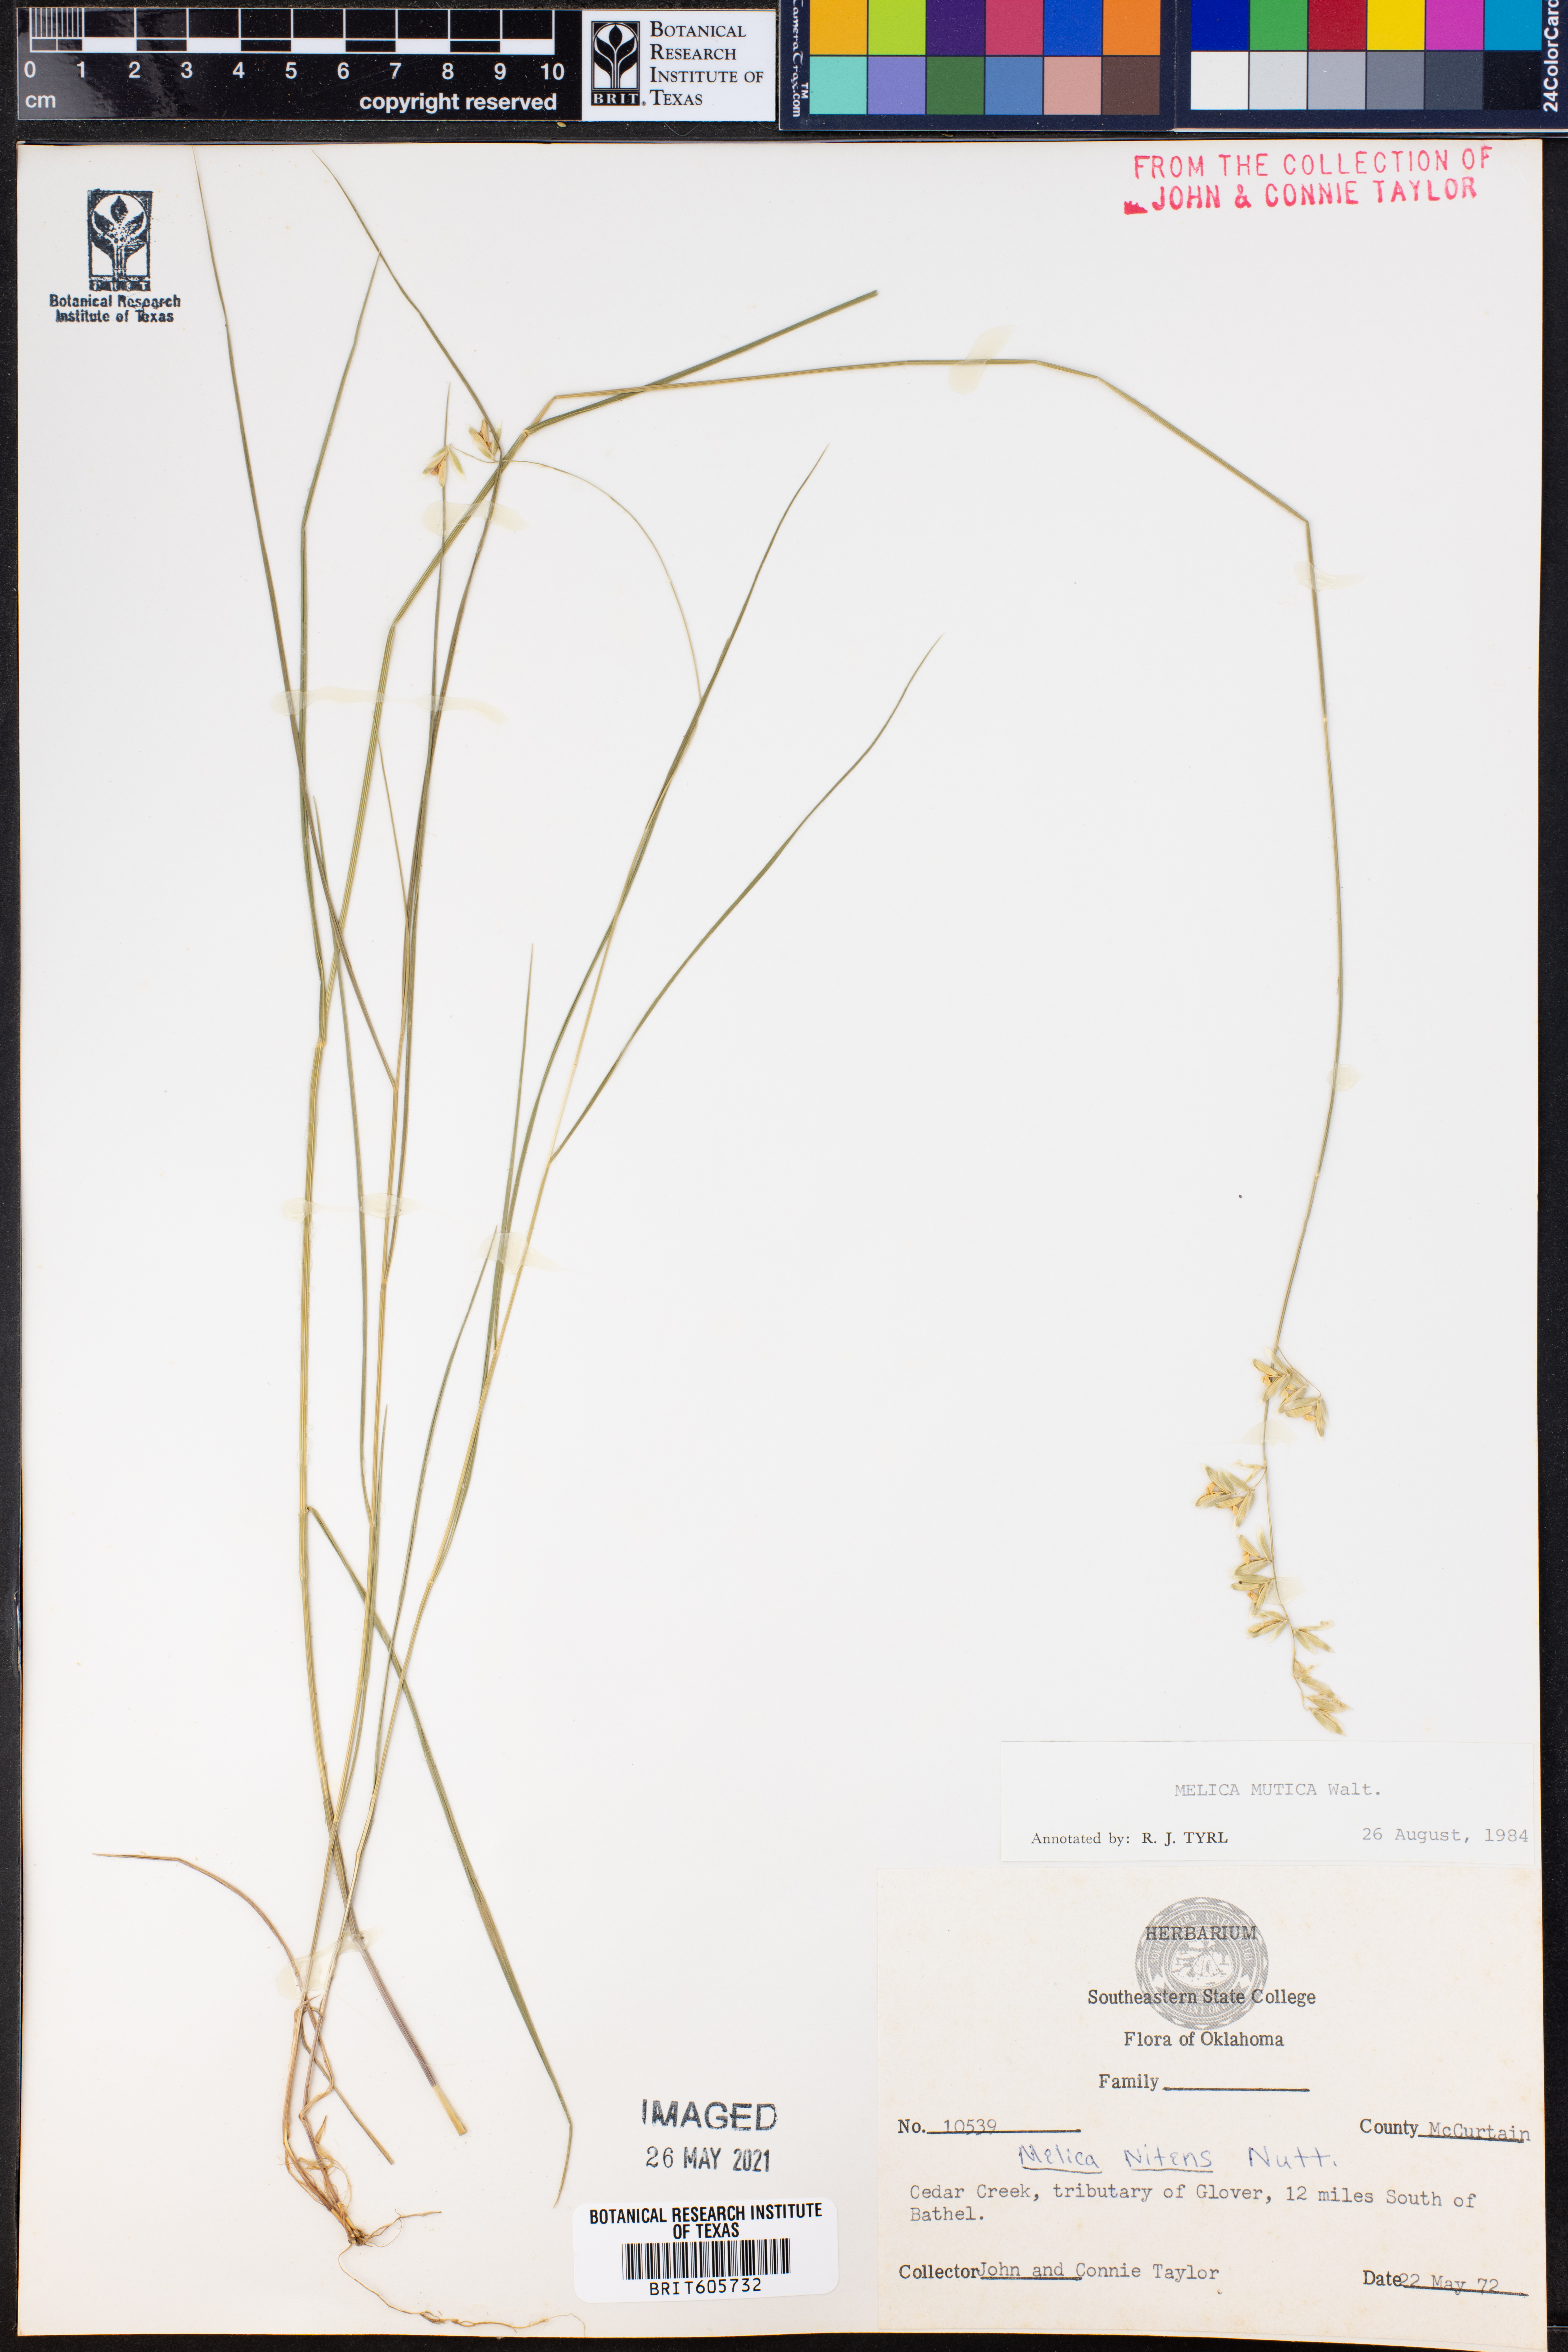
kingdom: Plantae
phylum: Tracheophyta
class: Liliopsida
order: Poales
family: Poaceae
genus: Melica
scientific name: Melica mutica
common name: Two-flower melic
